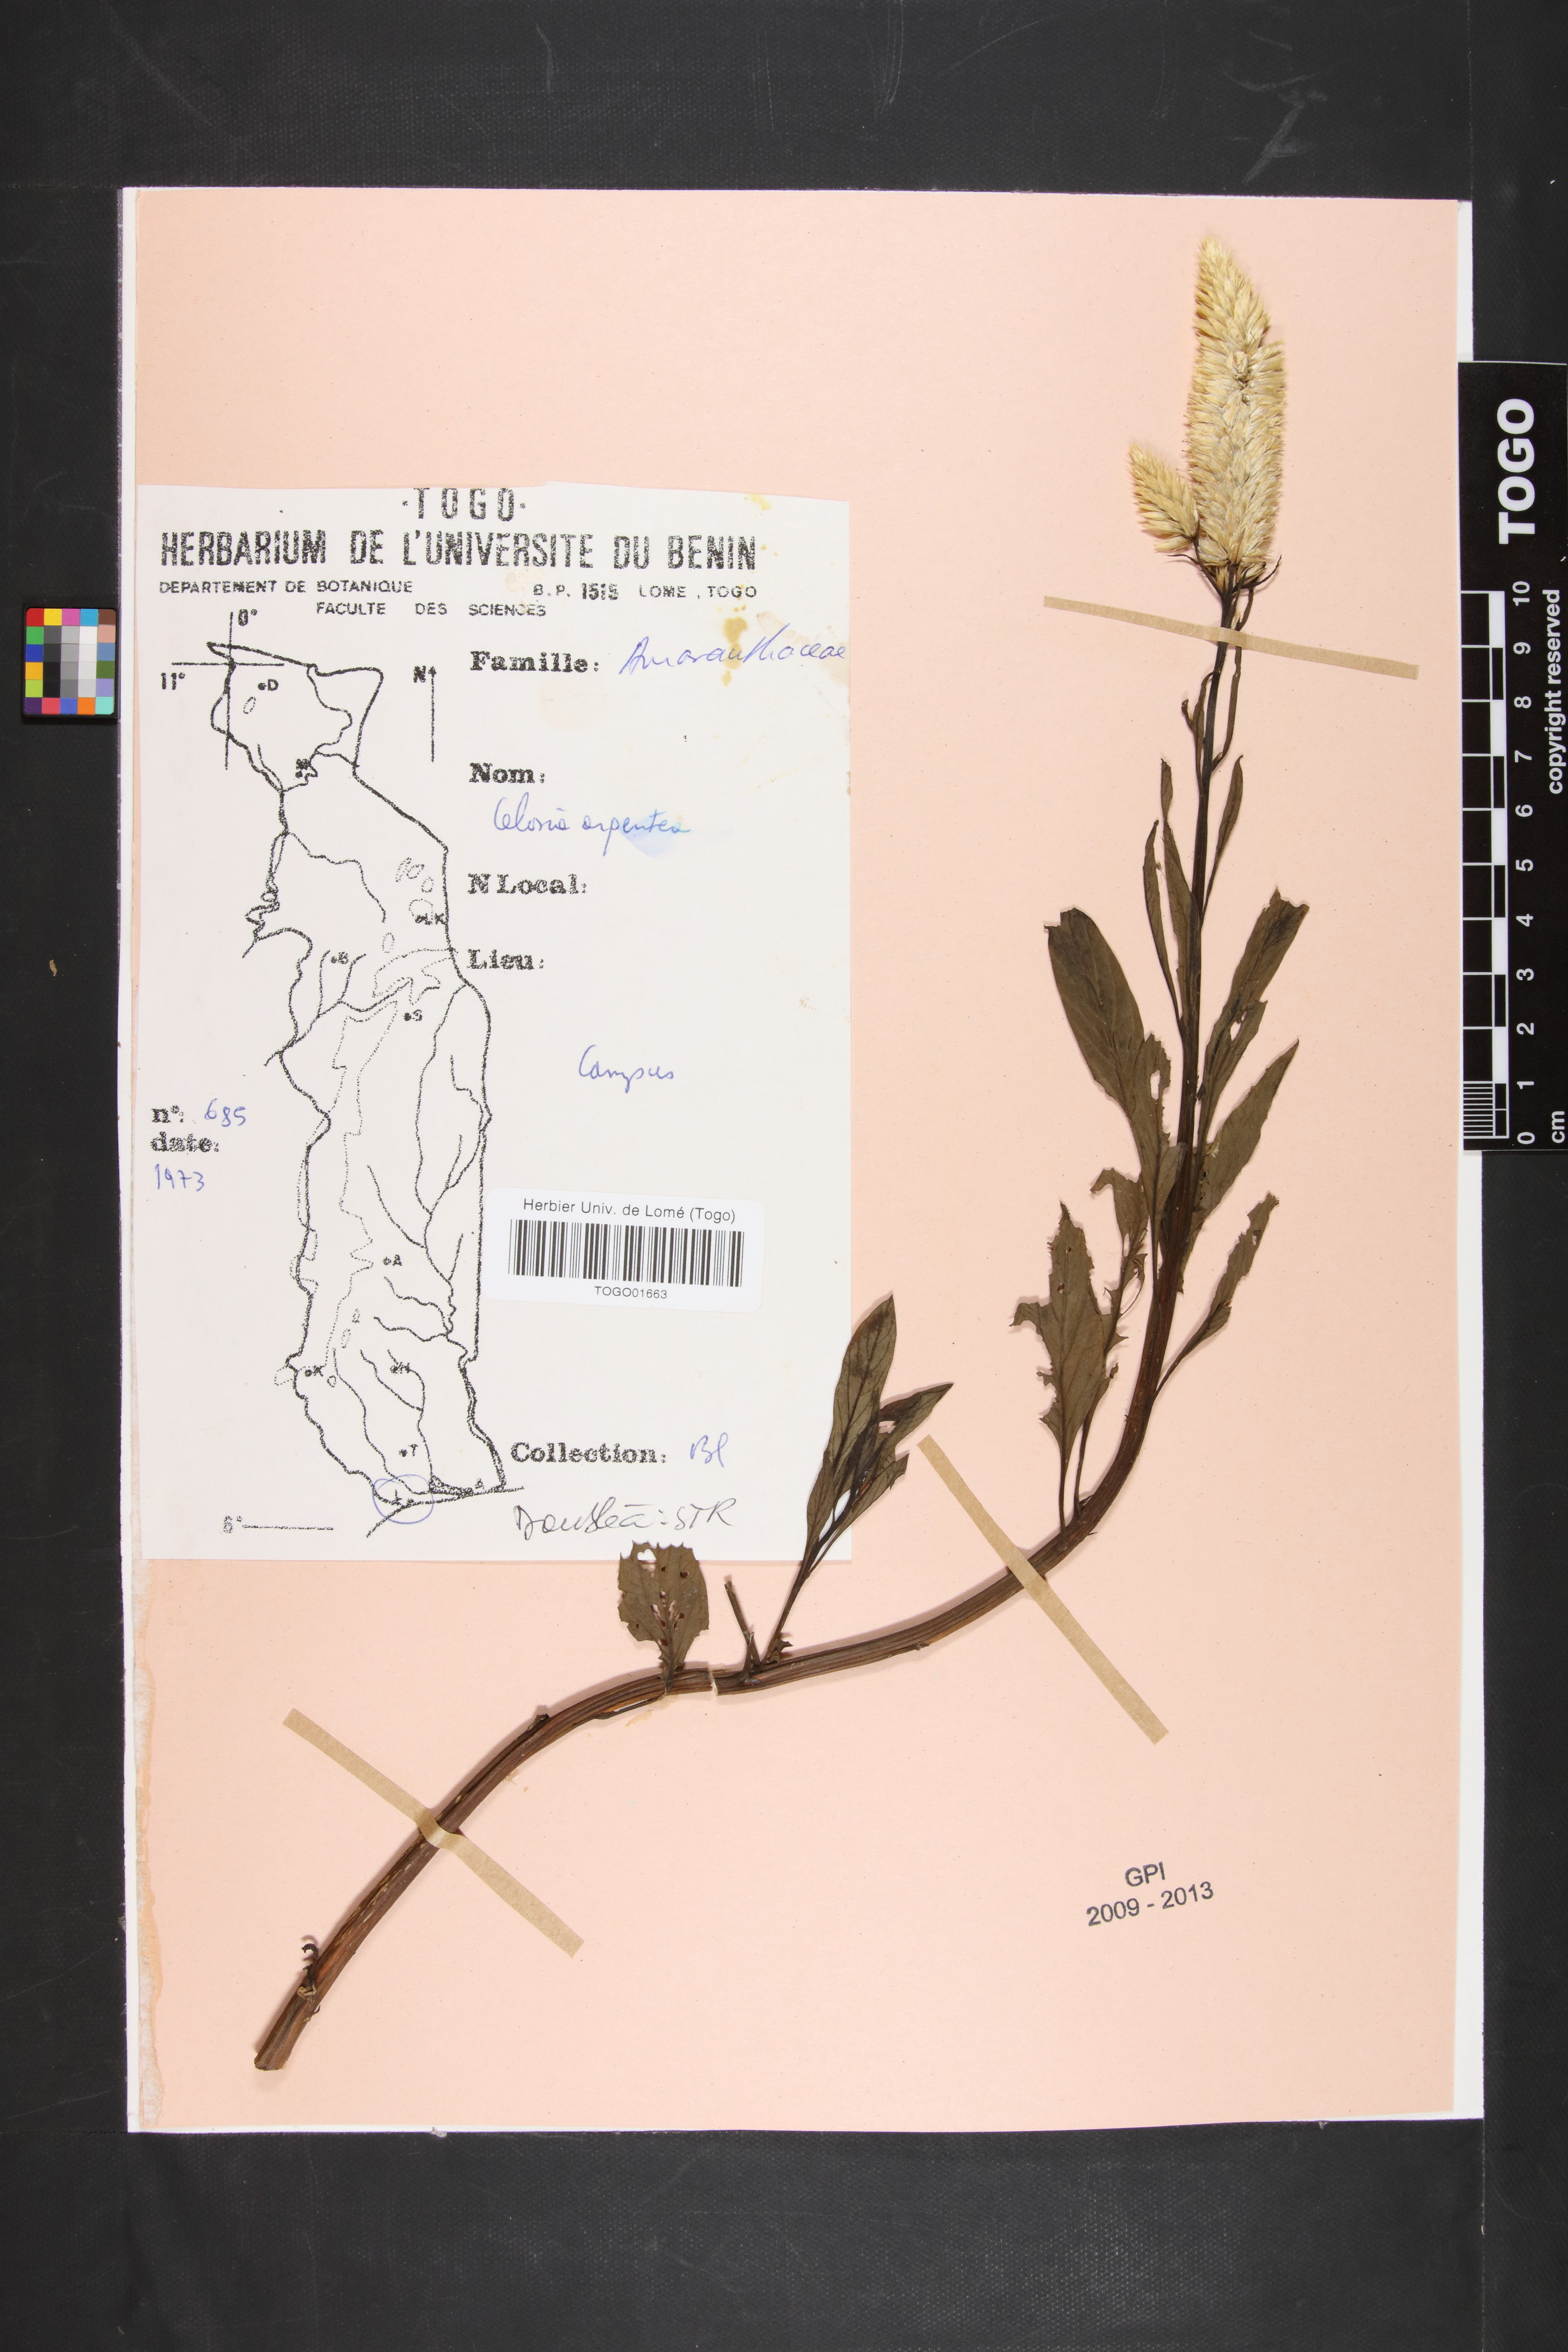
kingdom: Plantae
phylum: Tracheophyta
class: Magnoliopsida
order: Caryophyllales
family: Amaranthaceae
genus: Celosia
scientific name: Celosia argentea
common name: Feather cockscomb
